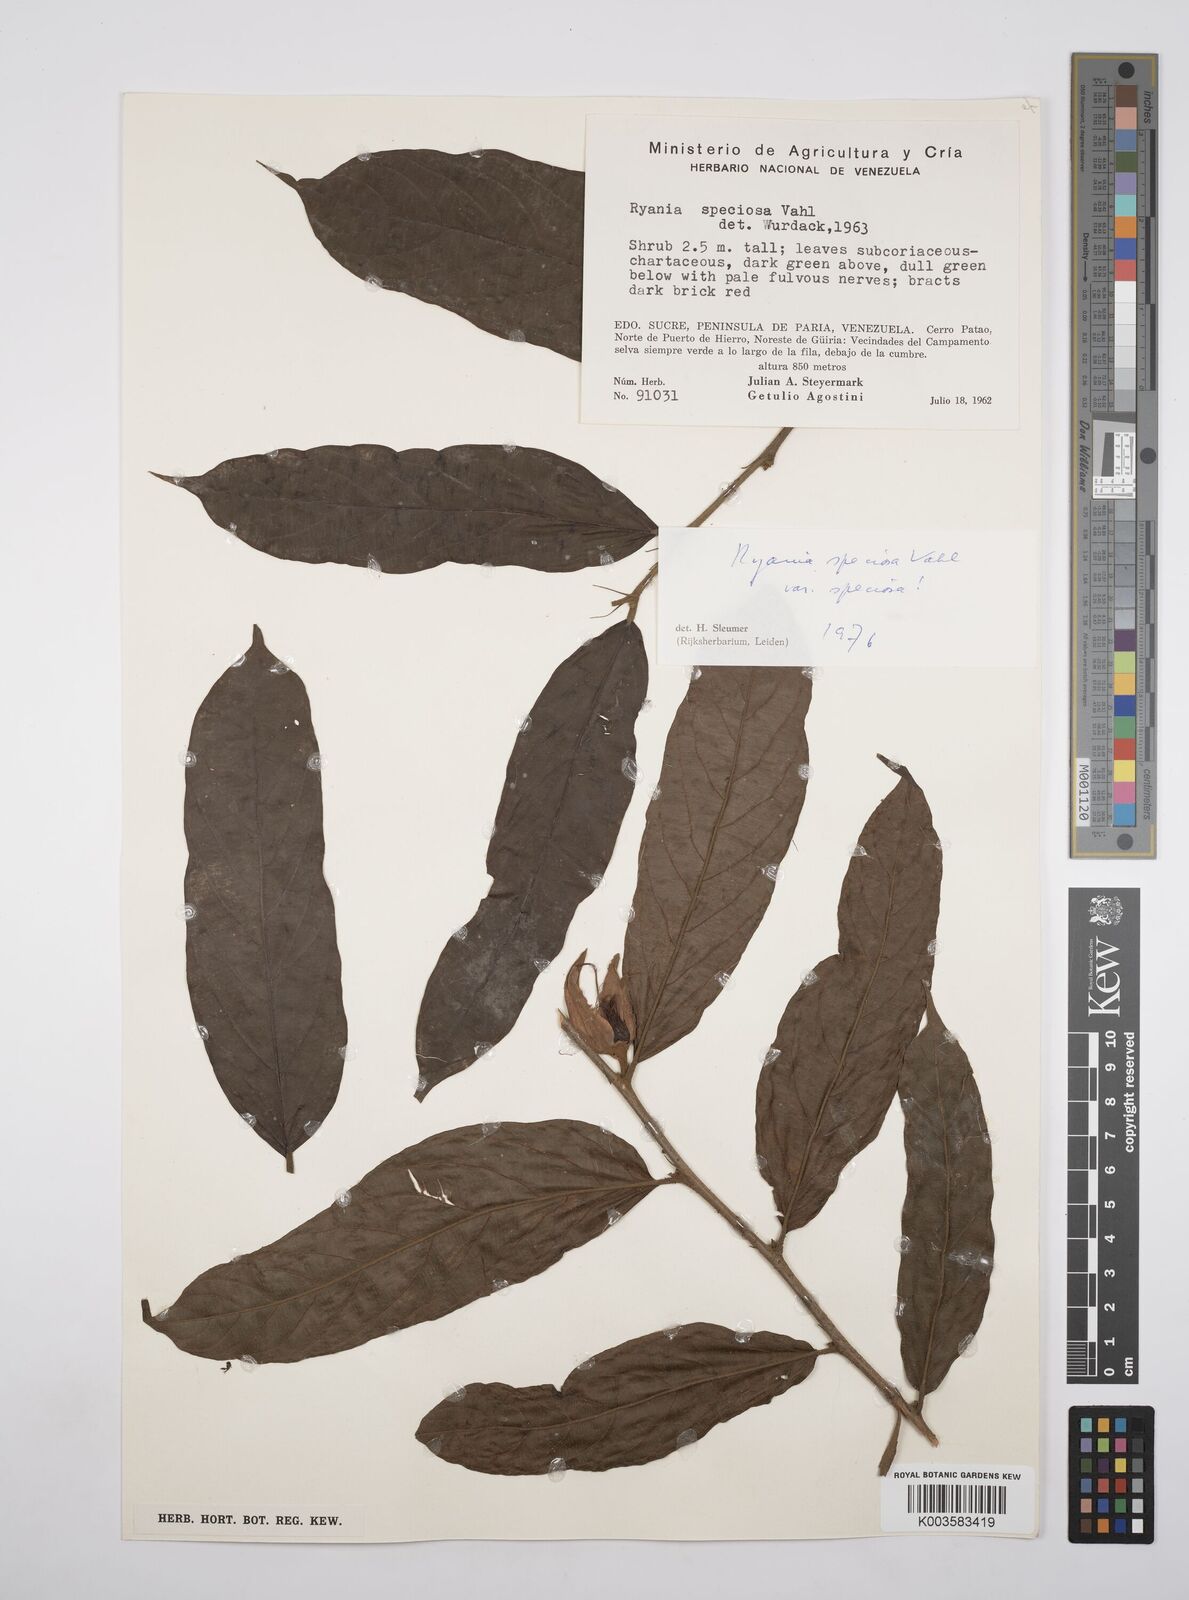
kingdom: Plantae
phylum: Tracheophyta
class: Magnoliopsida
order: Malpighiales
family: Salicaceae
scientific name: Salicaceae
